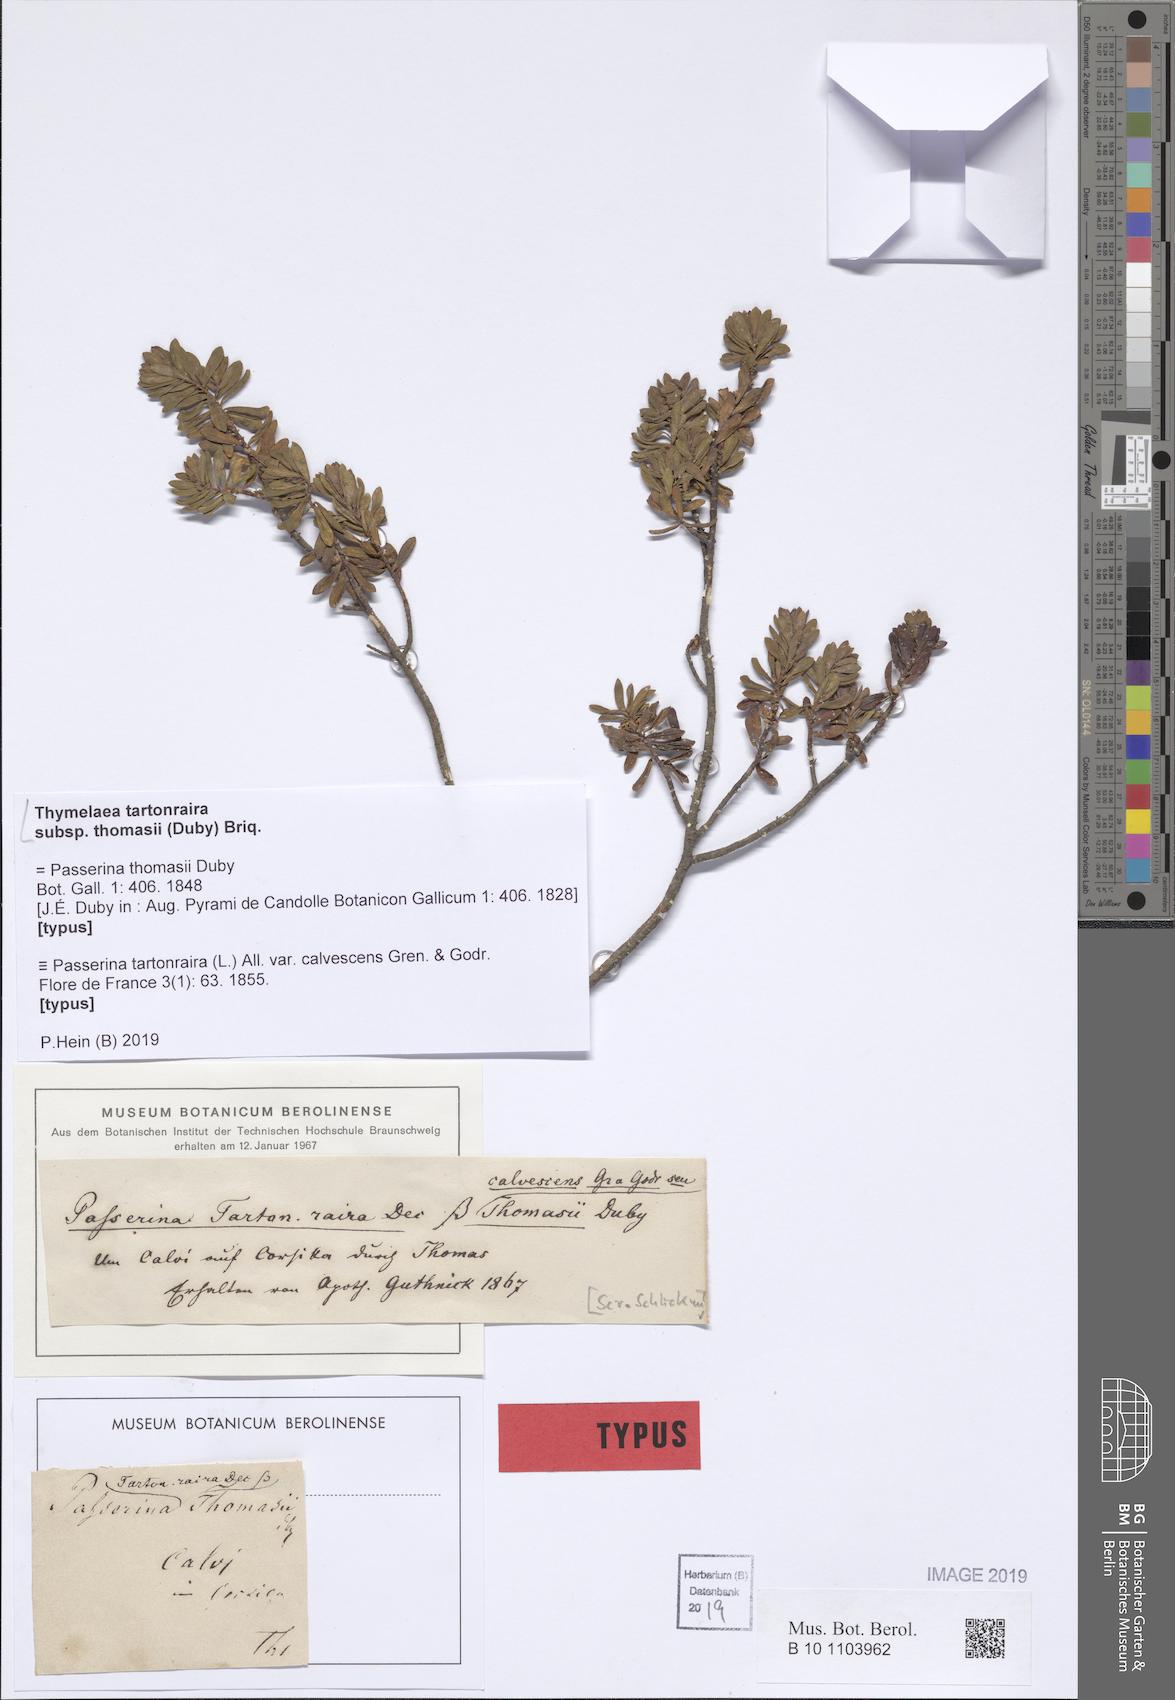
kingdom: Plantae
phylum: Tracheophyta
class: Magnoliopsida
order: Malvales
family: Thymelaeaceae
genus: Thymelaea
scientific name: Thymelaea tartonraira
